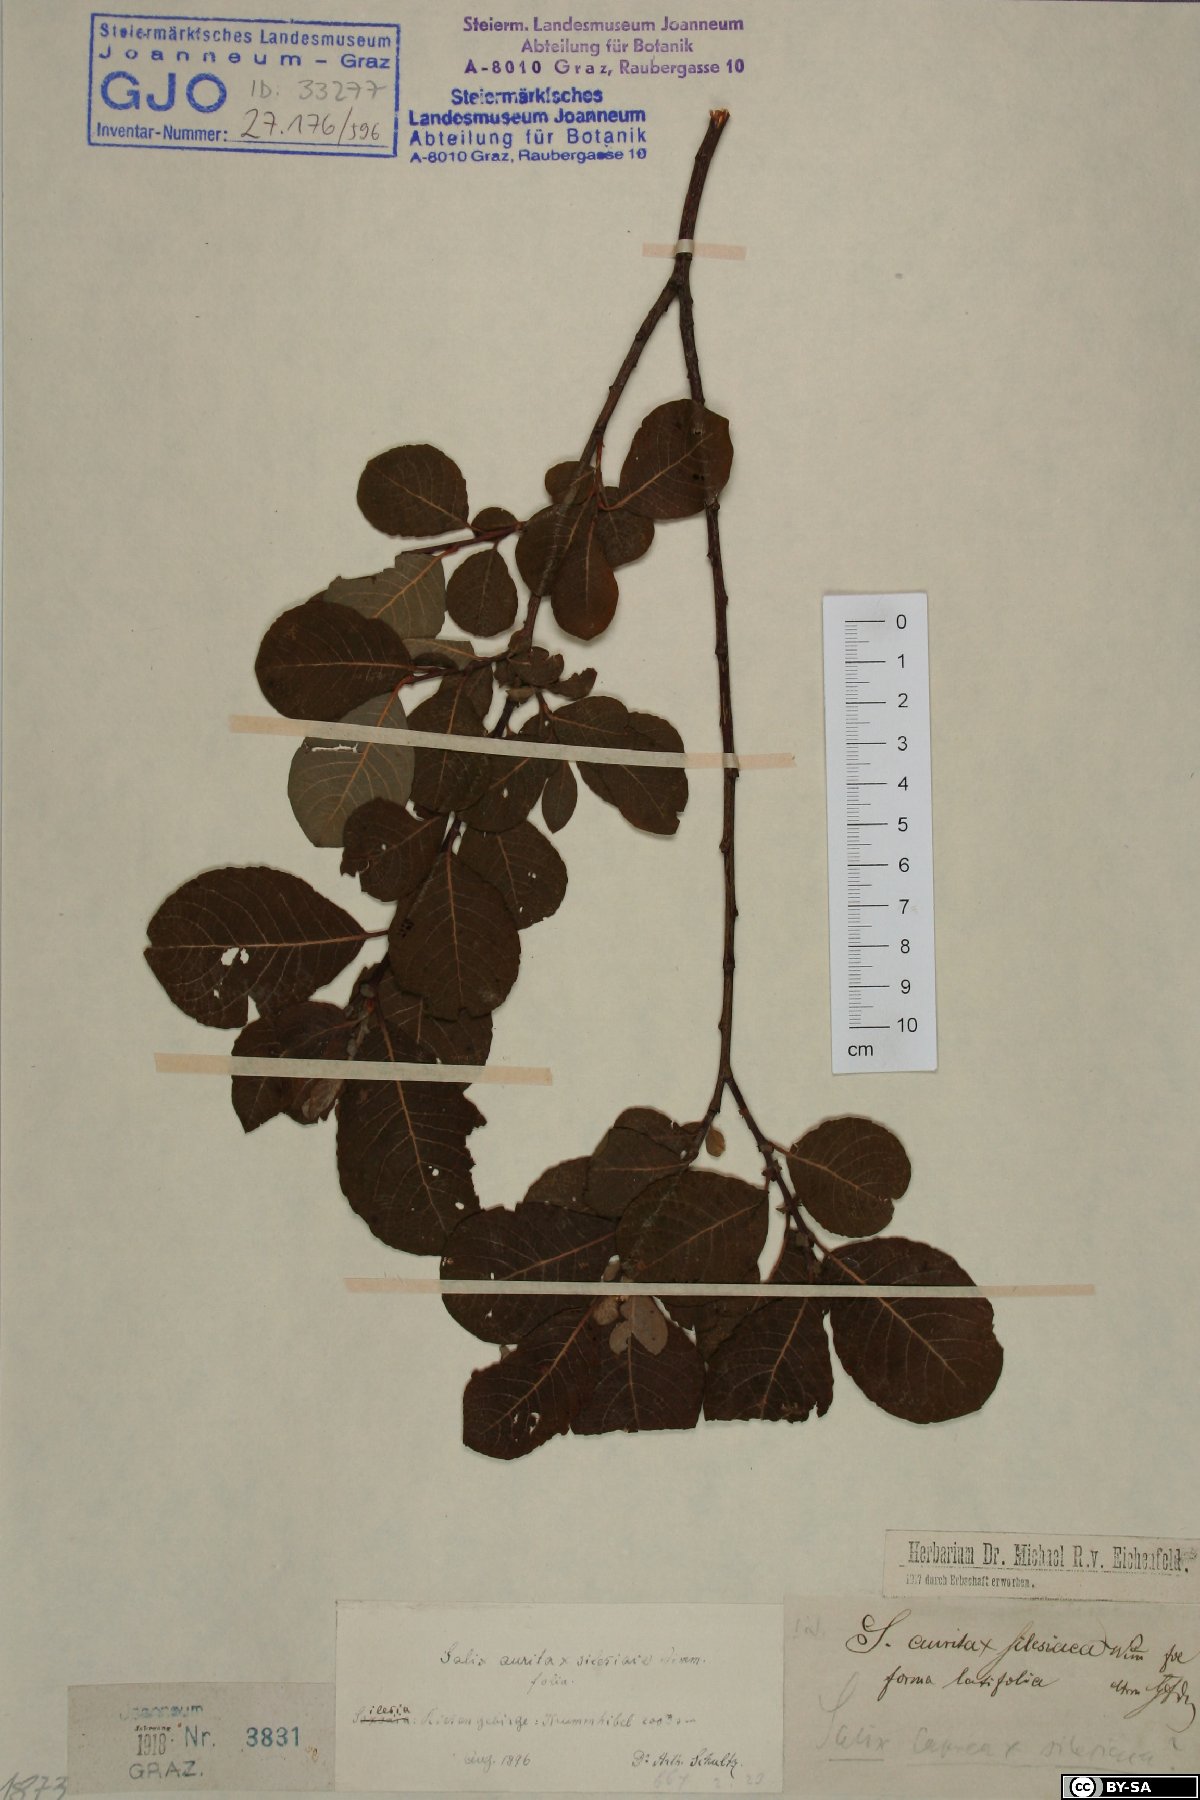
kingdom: Plantae
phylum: Tracheophyta
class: Magnoliopsida
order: Malpighiales
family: Salicaceae
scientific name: Salicaceae
